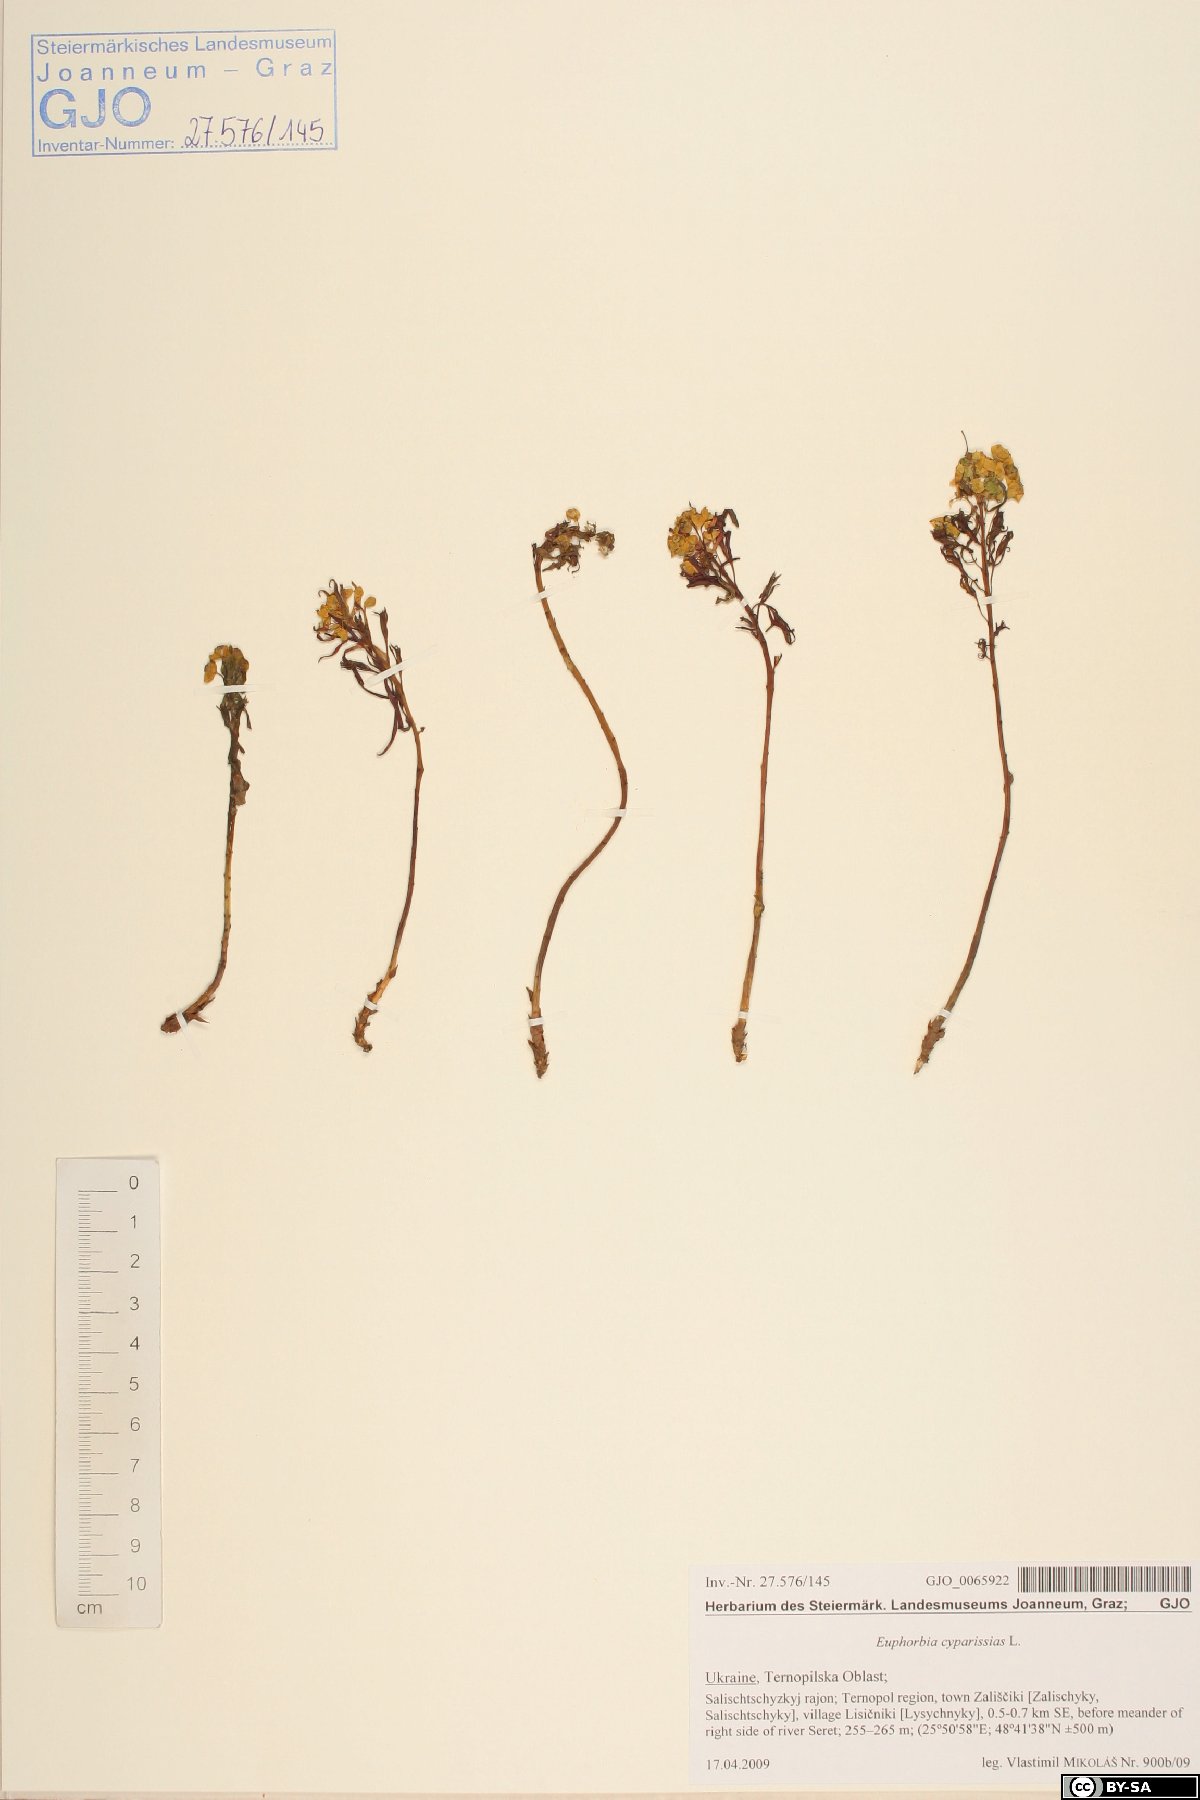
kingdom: Plantae
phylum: Tracheophyta
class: Magnoliopsida
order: Malpighiales
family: Euphorbiaceae
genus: Euphorbia
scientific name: Euphorbia cyparissias
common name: Cypress spurge
